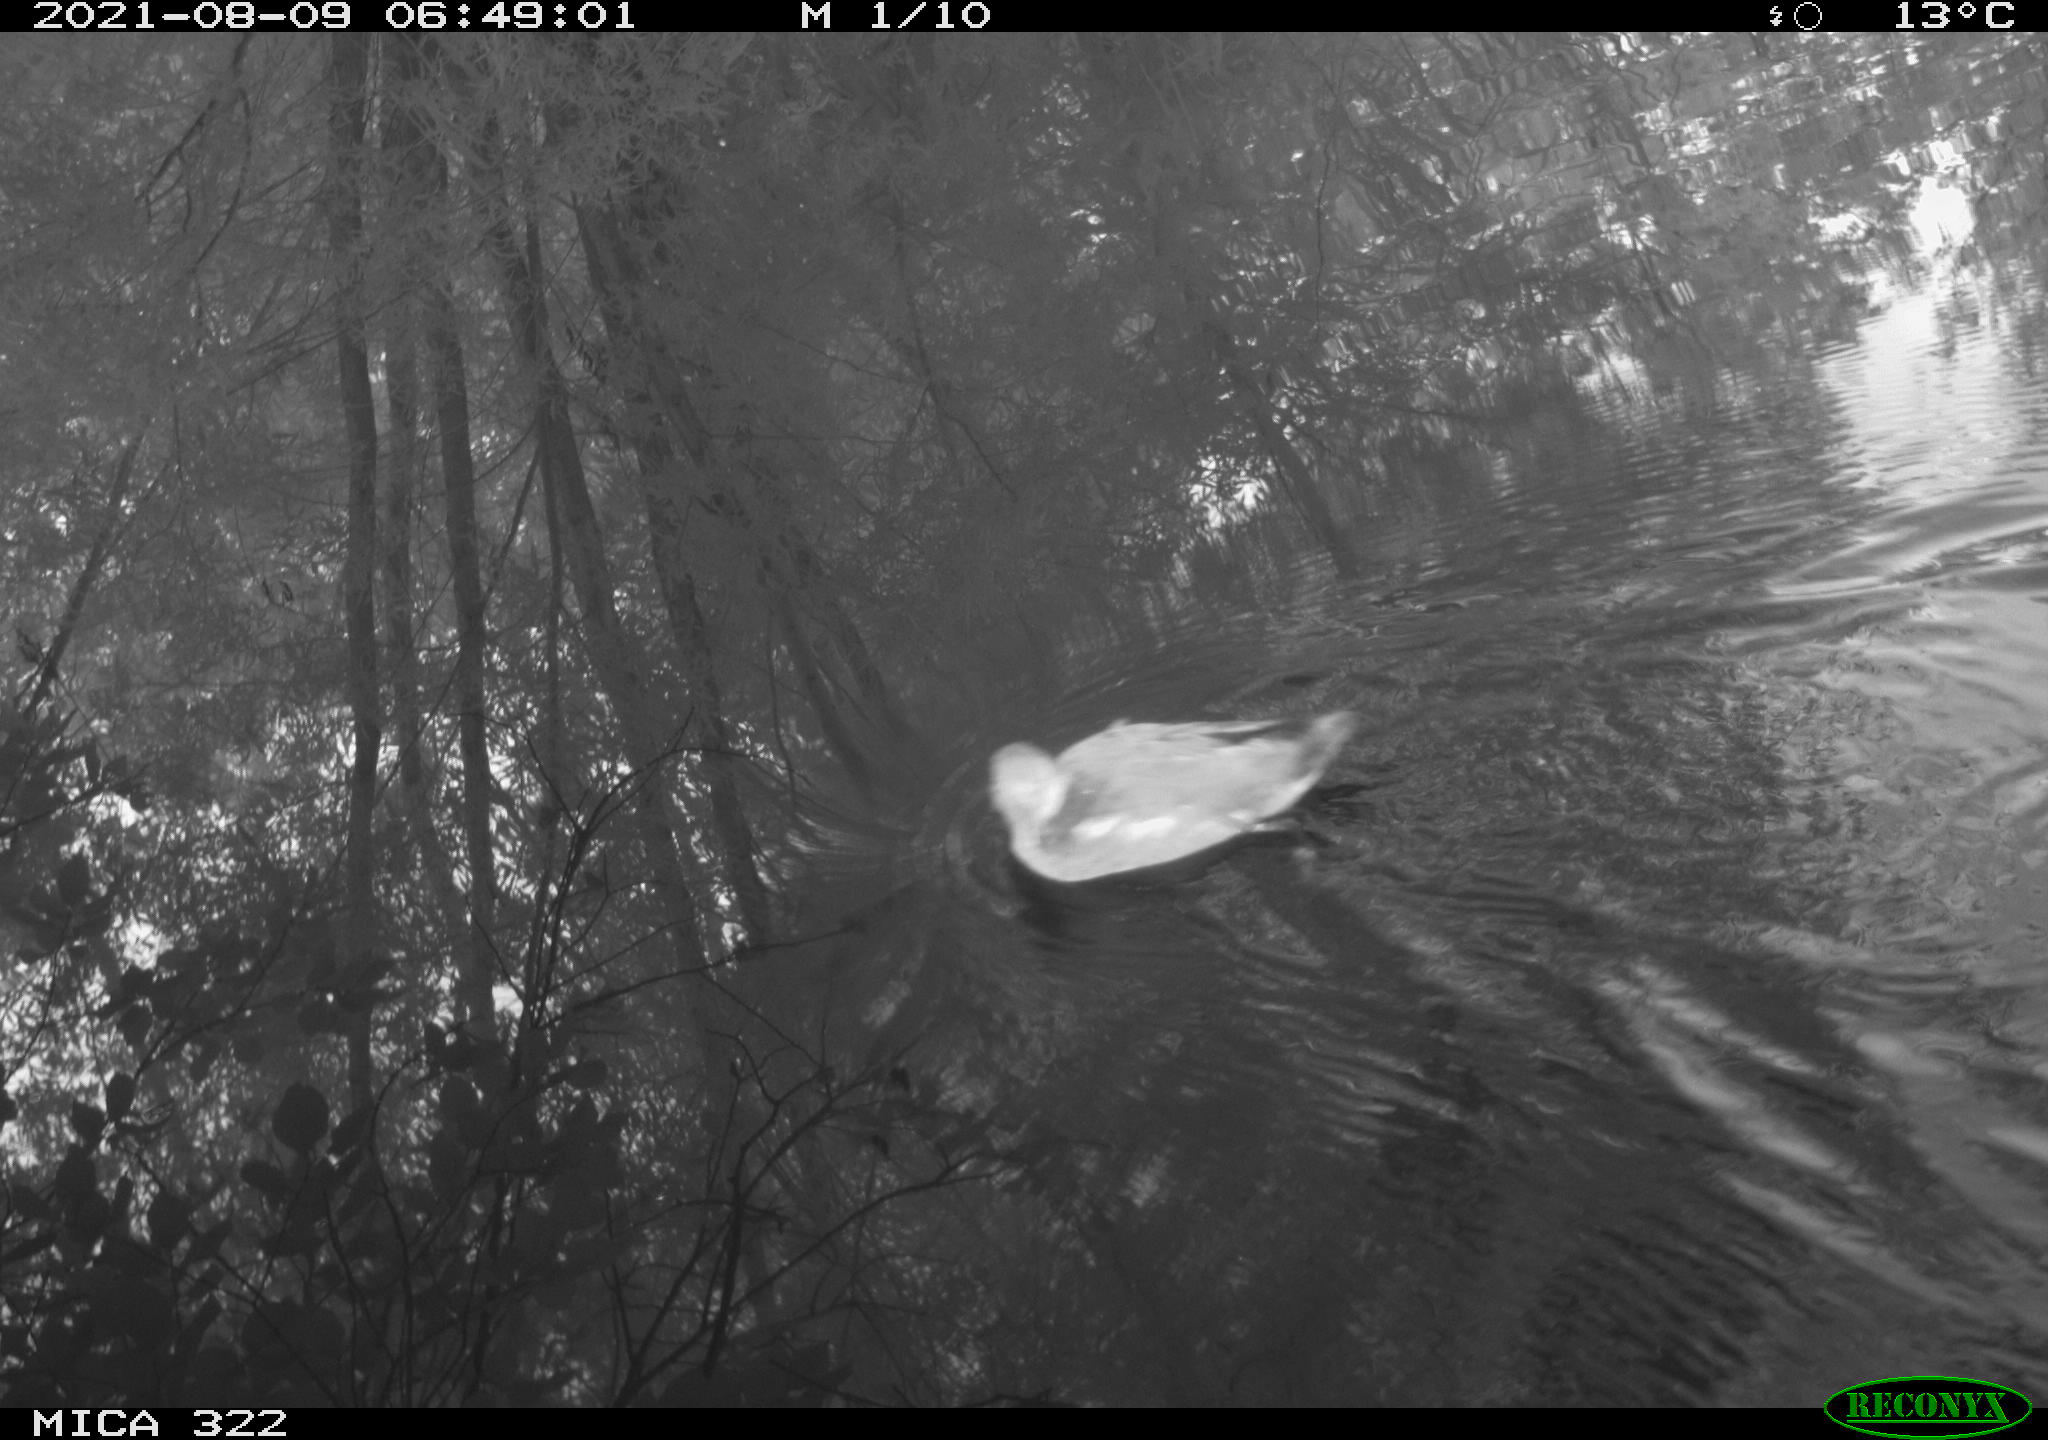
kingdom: Animalia
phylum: Chordata
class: Aves
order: Gruiformes
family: Rallidae
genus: Gallinula
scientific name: Gallinula chloropus
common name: Common moorhen
